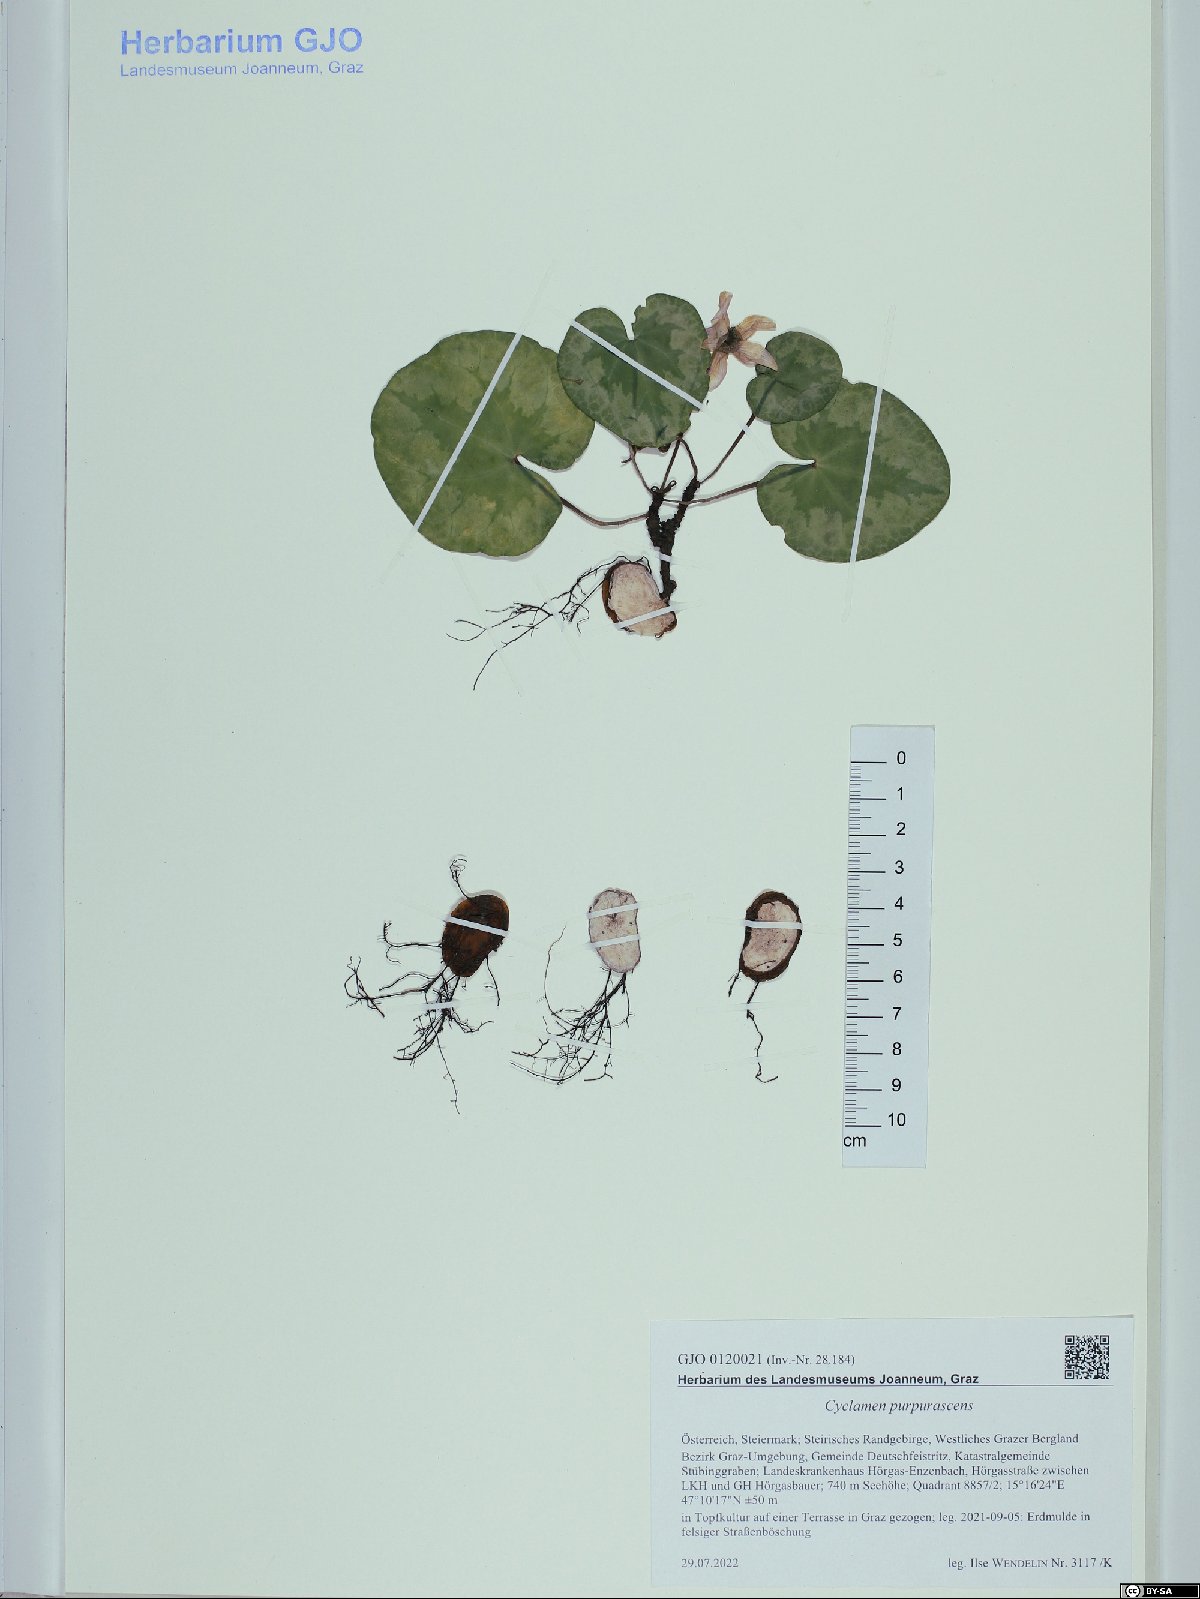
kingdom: Plantae
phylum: Tracheophyta
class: Magnoliopsida
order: Ericales
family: Primulaceae
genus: Cyclamen
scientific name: Cyclamen purpurascens
